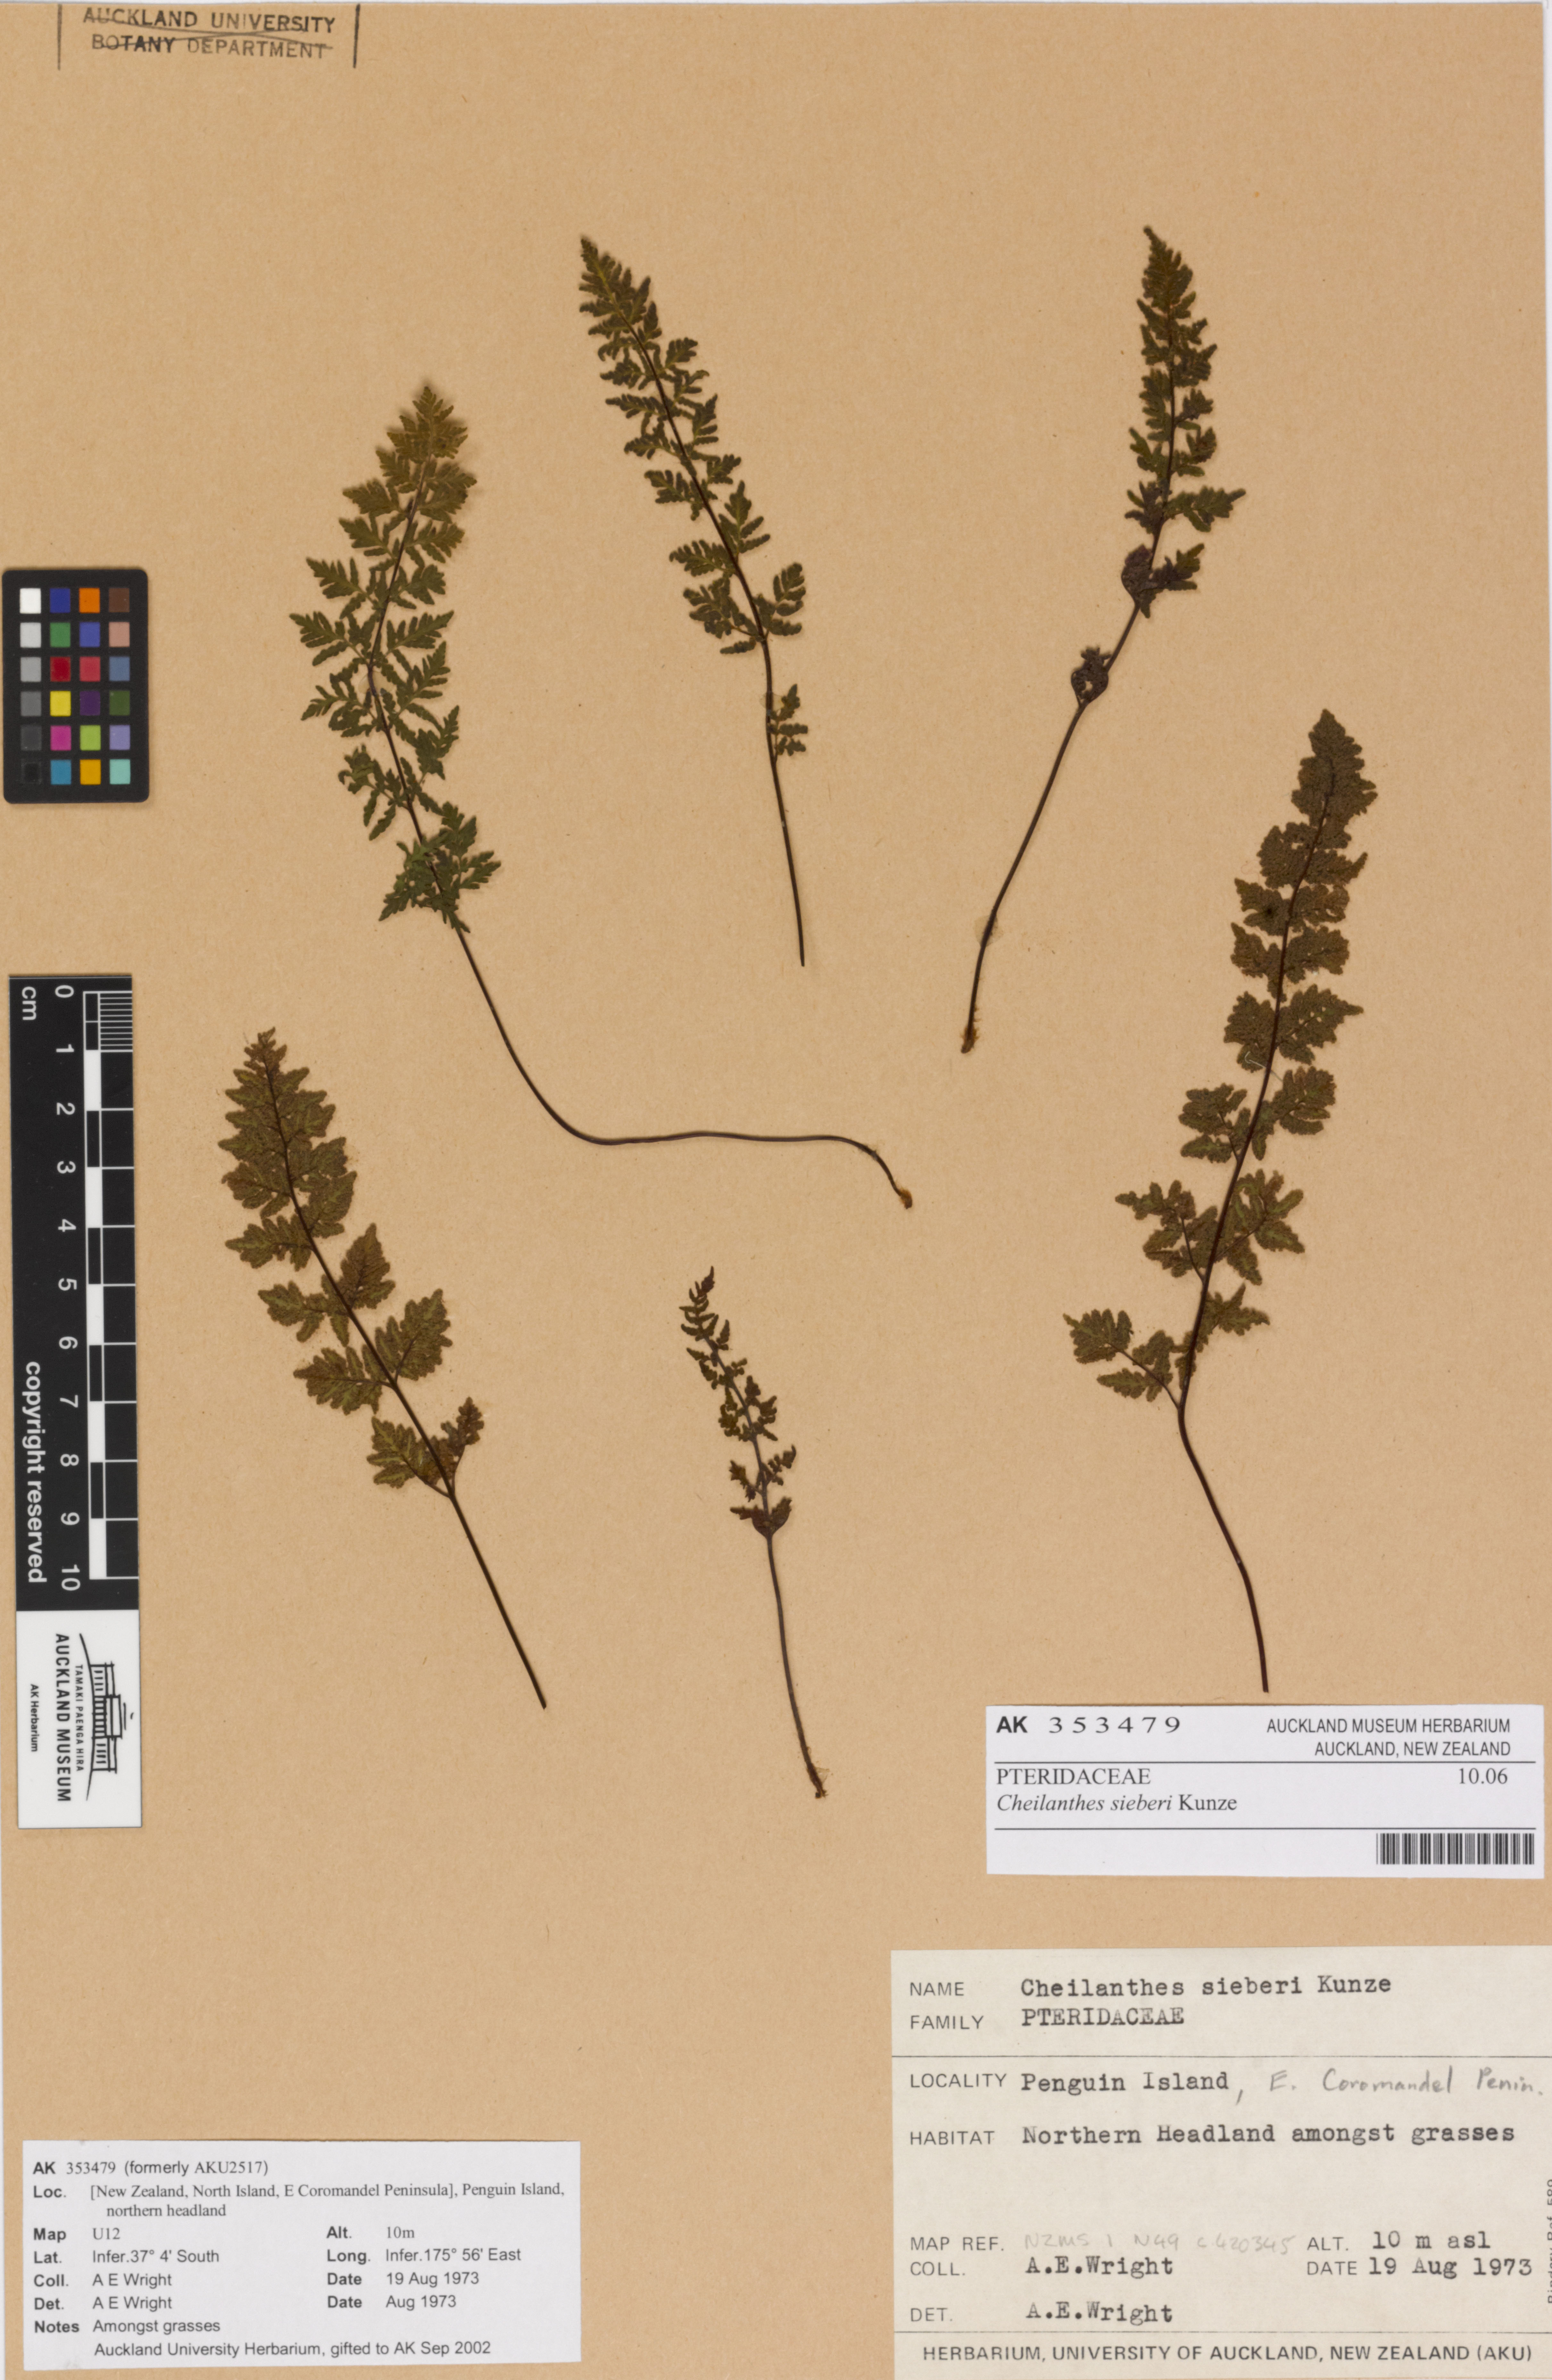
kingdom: Plantae
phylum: Tracheophyta
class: Polypodiopsida
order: Polypodiales
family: Pteridaceae
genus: Cheilanthes
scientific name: Cheilanthes sieberi
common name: Mulga fern
